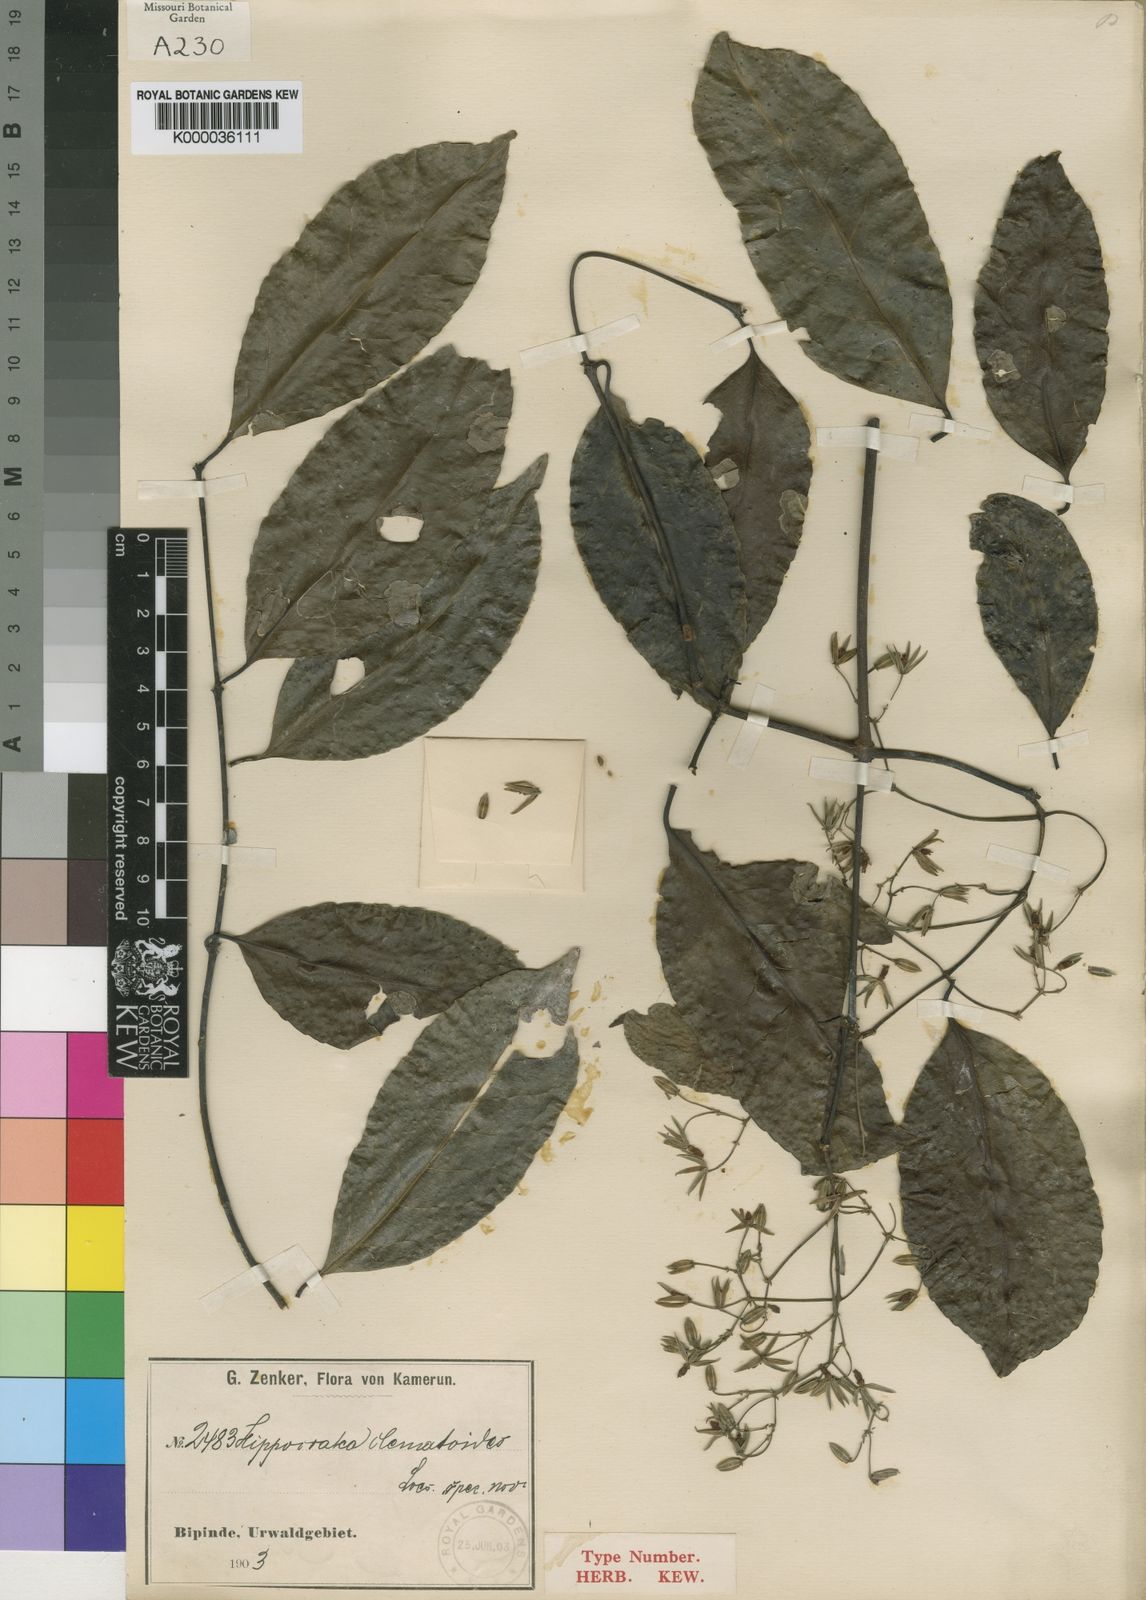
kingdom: Plantae
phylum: Tracheophyta
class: Magnoliopsida
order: Celastrales
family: Celastraceae
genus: Loeseneriella
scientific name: Loeseneriella
